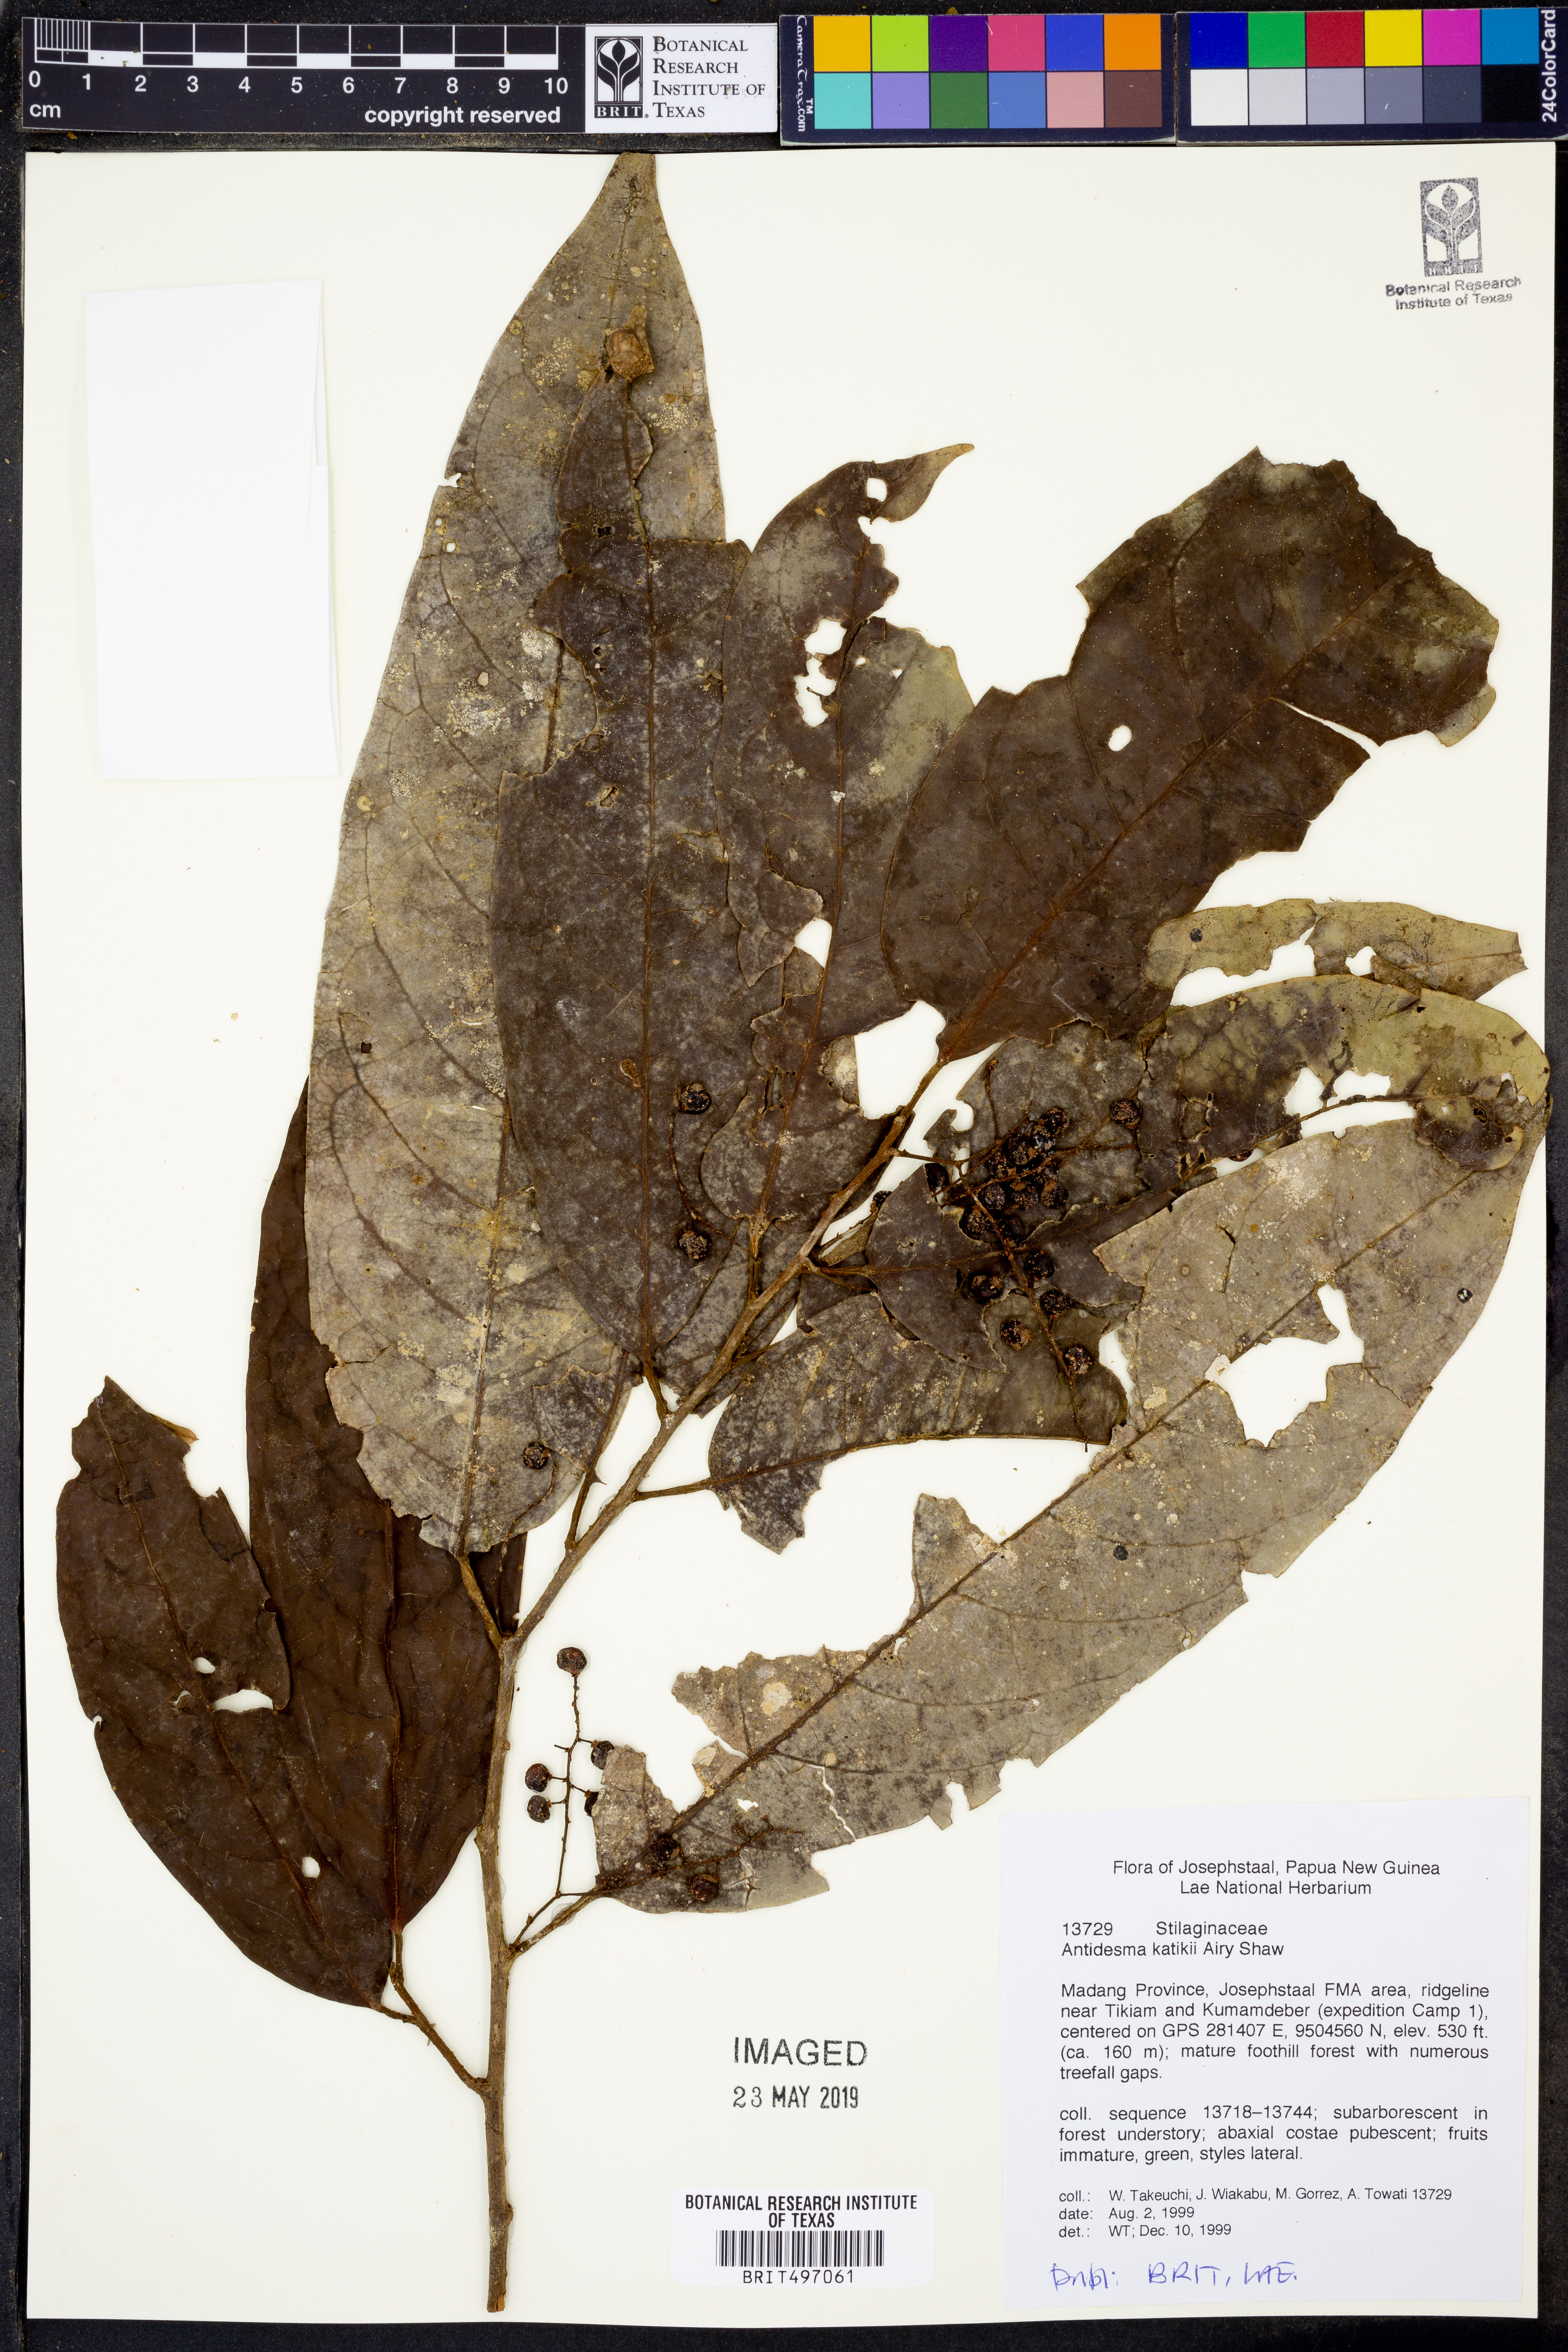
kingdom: Plantae
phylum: Tracheophyta
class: Magnoliopsida
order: Malpighiales
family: Phyllanthaceae
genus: Antidesma
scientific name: Antidesma excavatum
